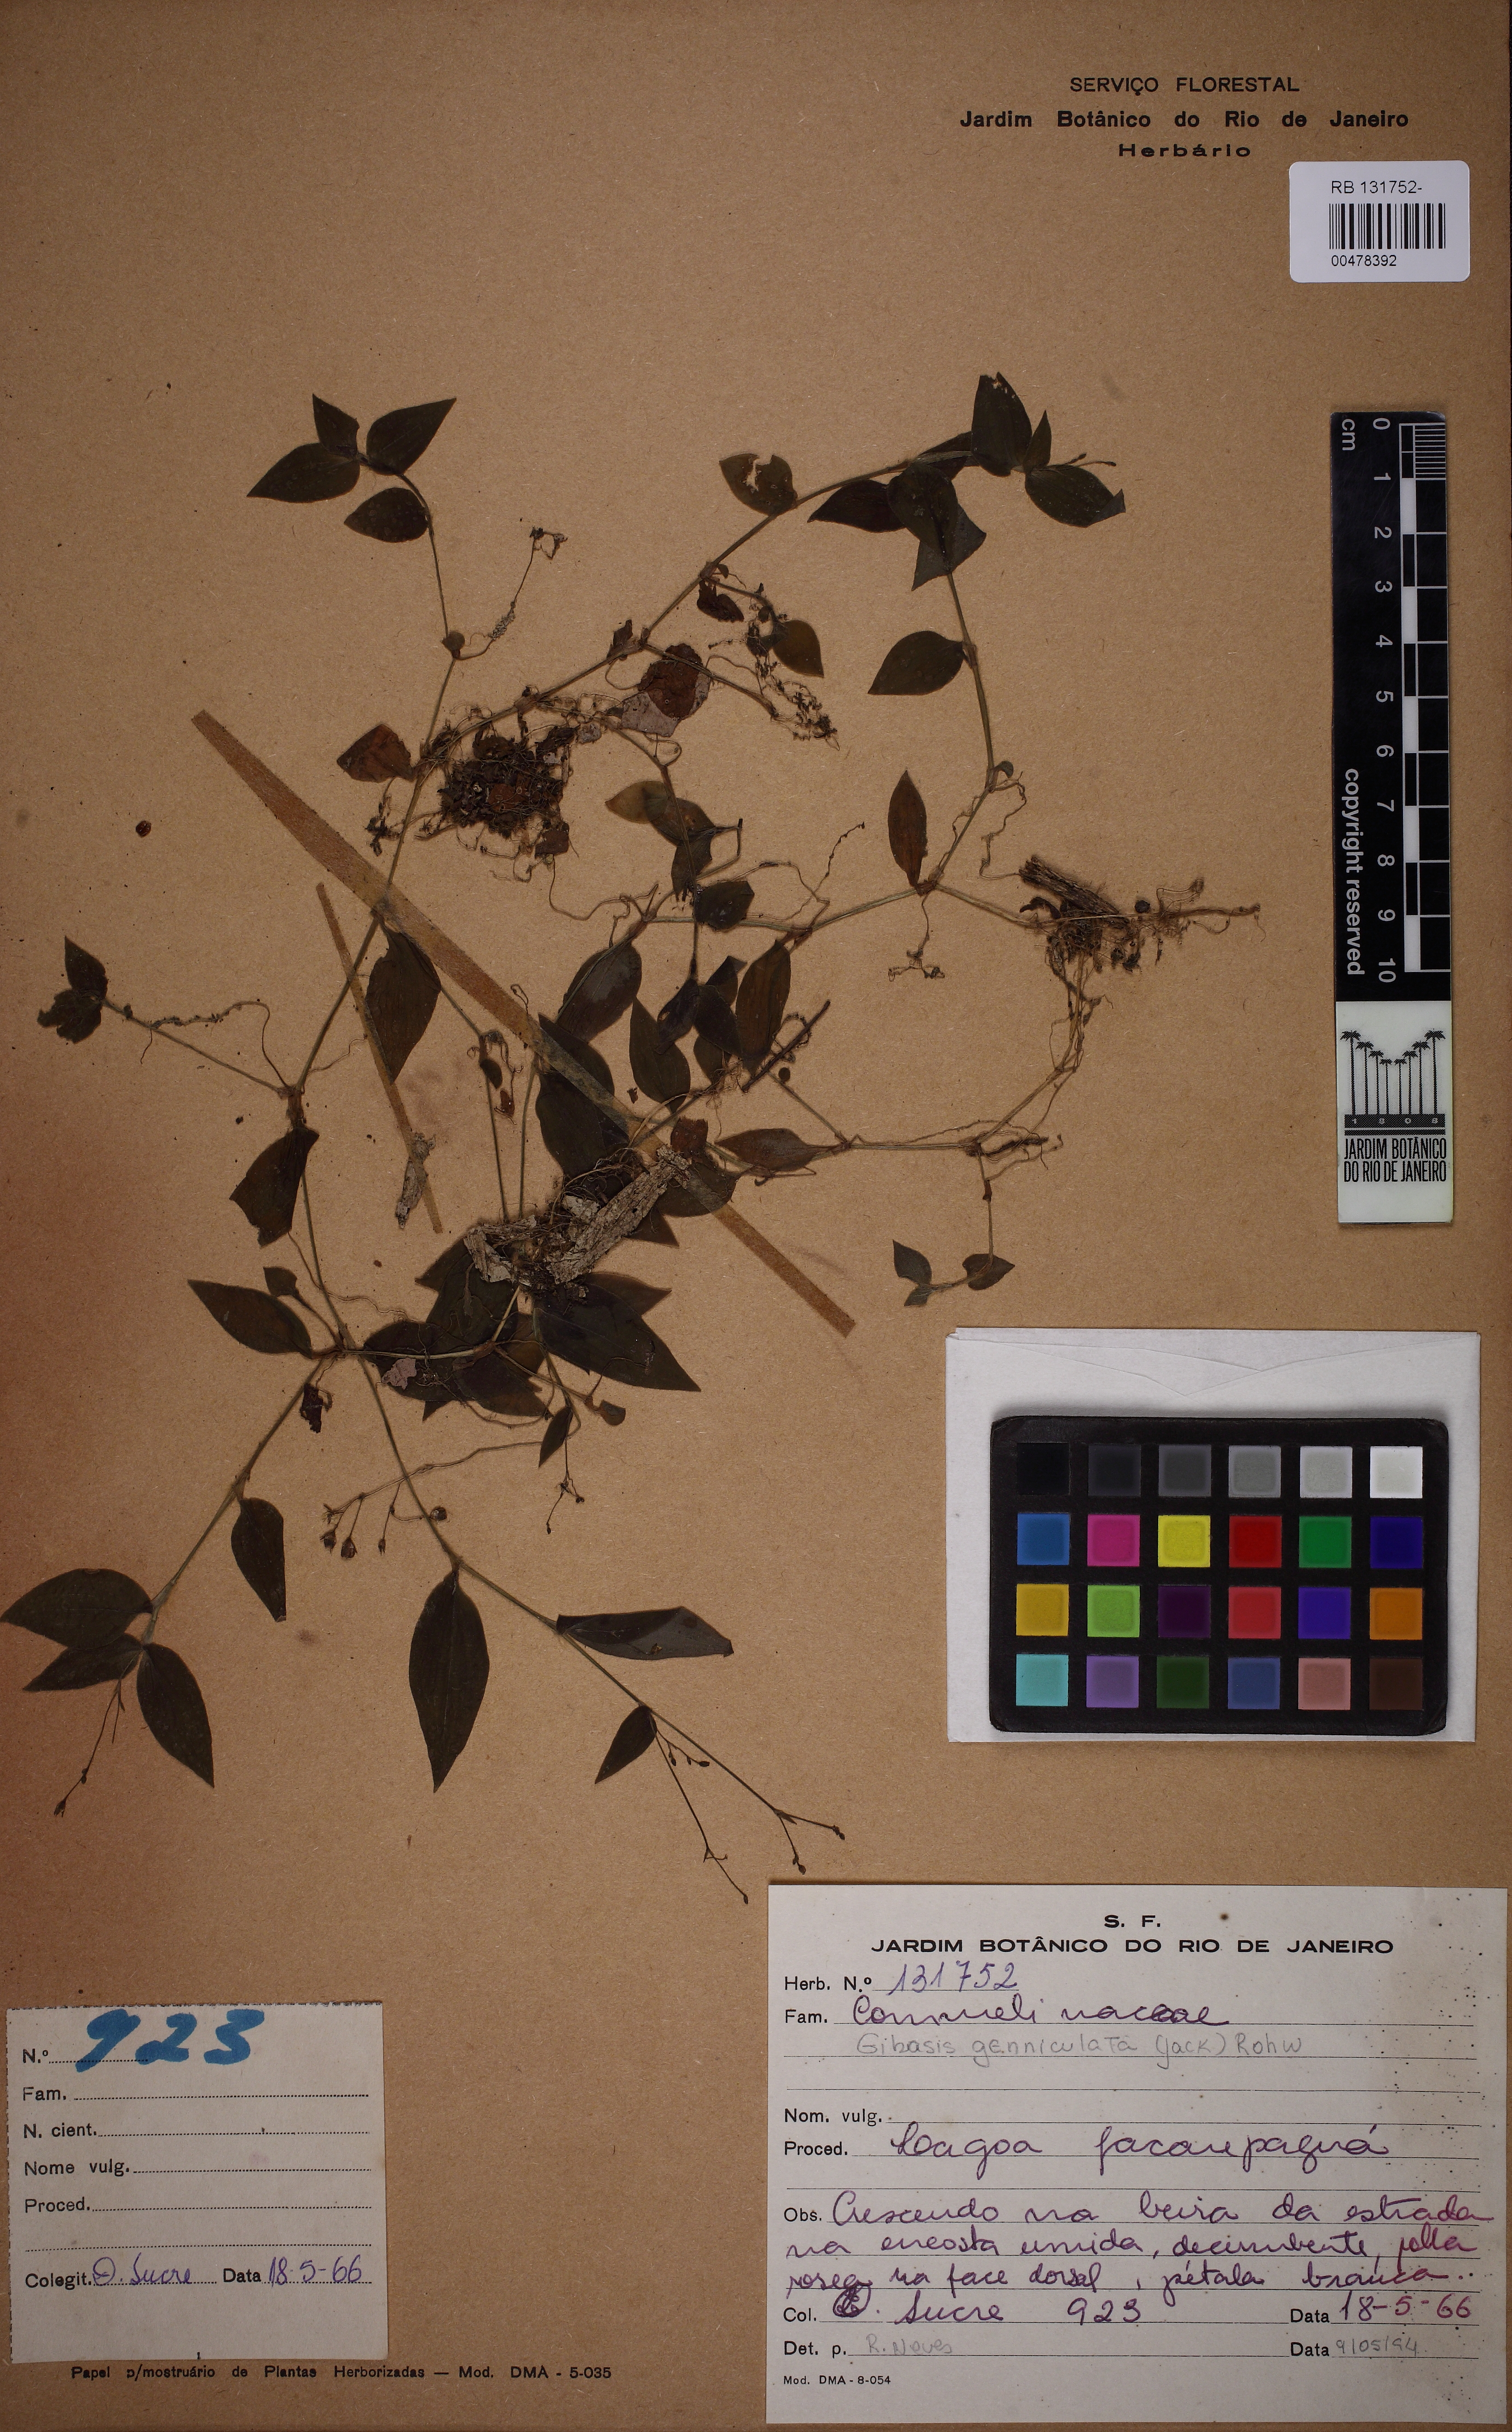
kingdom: Plantae
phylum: Tracheophyta
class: Liliopsida
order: Commelinales
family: Commelinaceae
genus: Gibasis
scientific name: Gibasis geniculata
